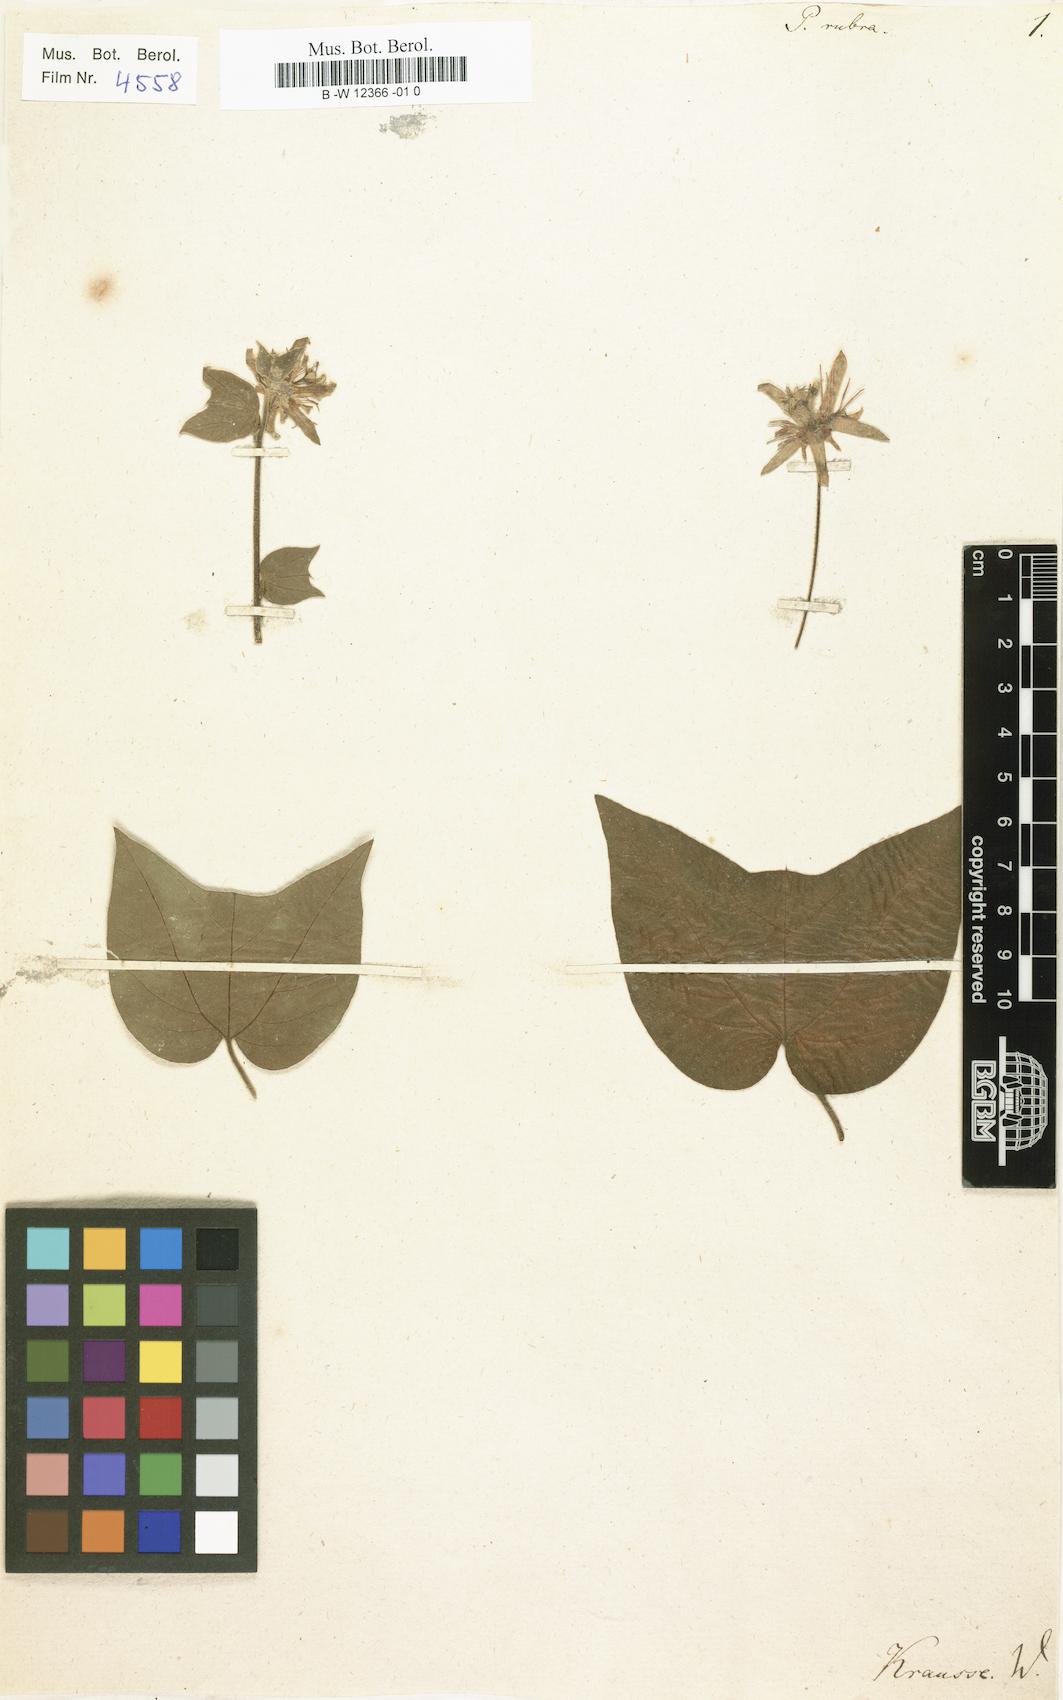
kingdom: Plantae
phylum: Tracheophyta
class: Magnoliopsida
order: Malpighiales
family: Passifloraceae
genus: Passiflora
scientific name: Passiflora rubra
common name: Snakeberry vine
